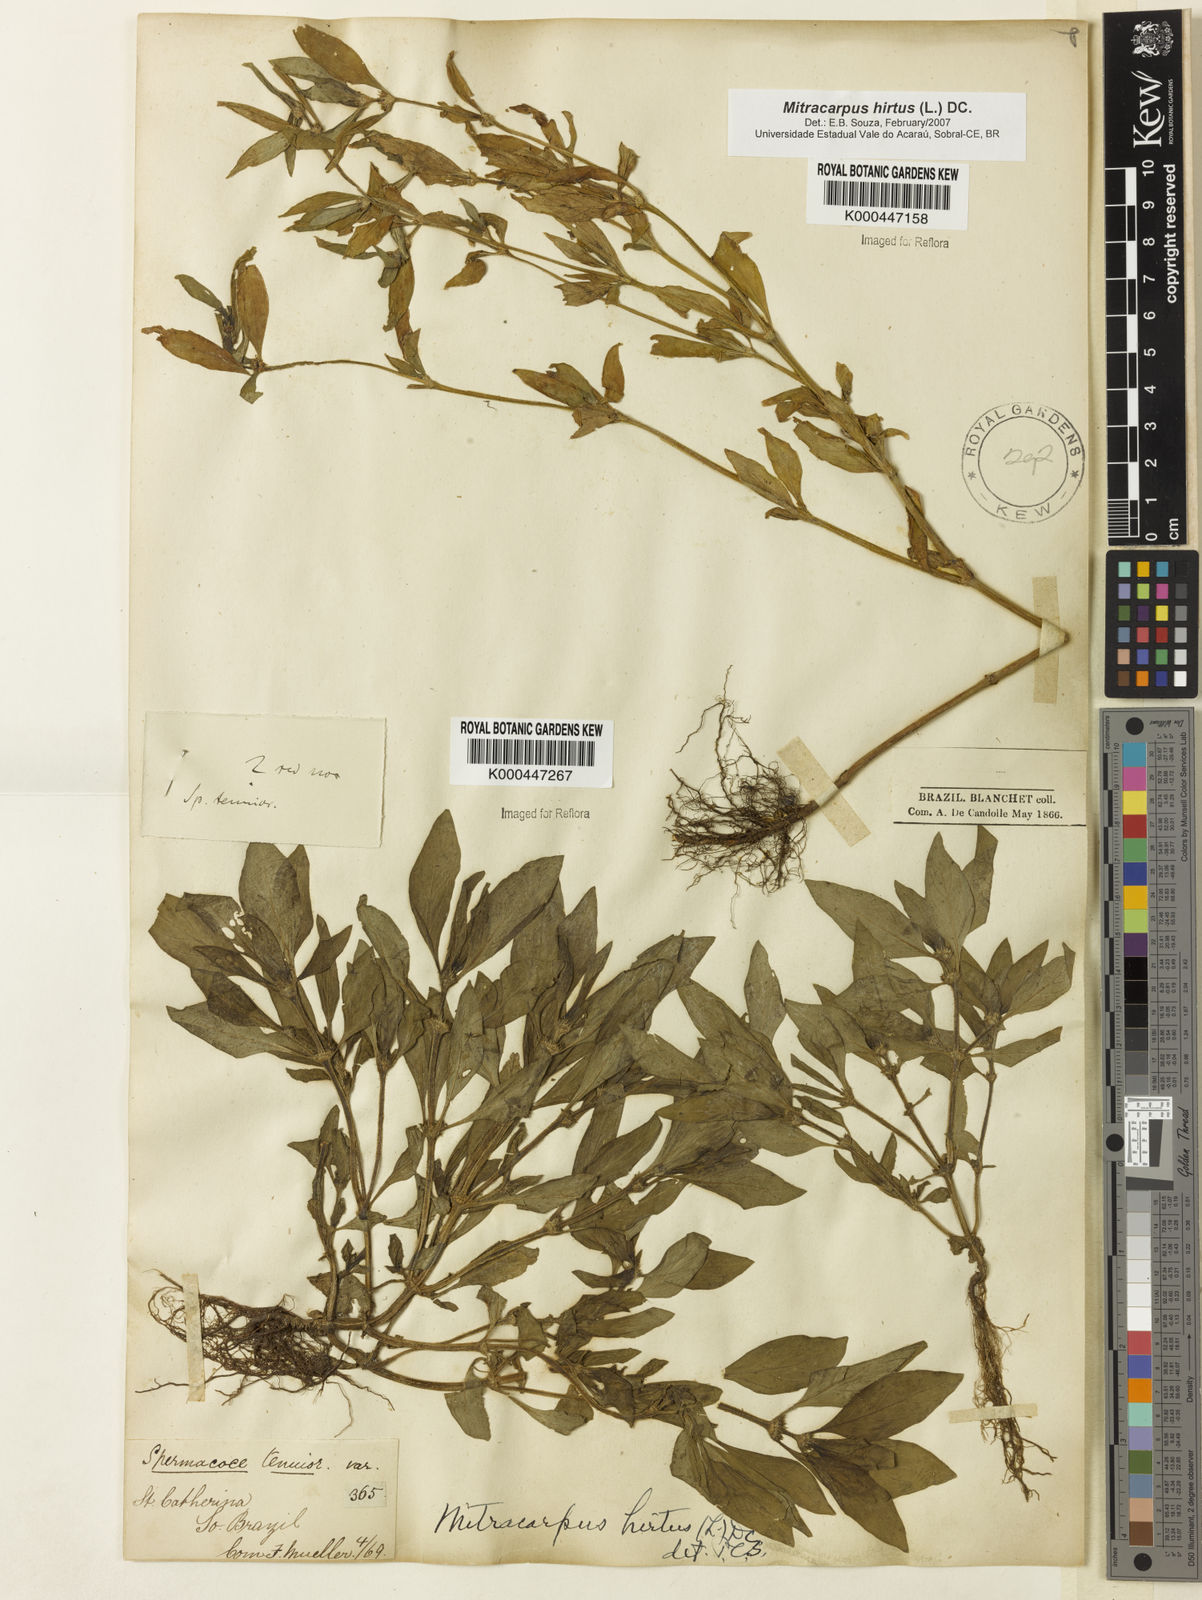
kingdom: Plantae
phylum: Tracheophyta
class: Magnoliopsida
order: Gentianales
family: Rubiaceae
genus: Mitracarpus
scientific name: Mitracarpus hirtus
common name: Tropical girdlepod
